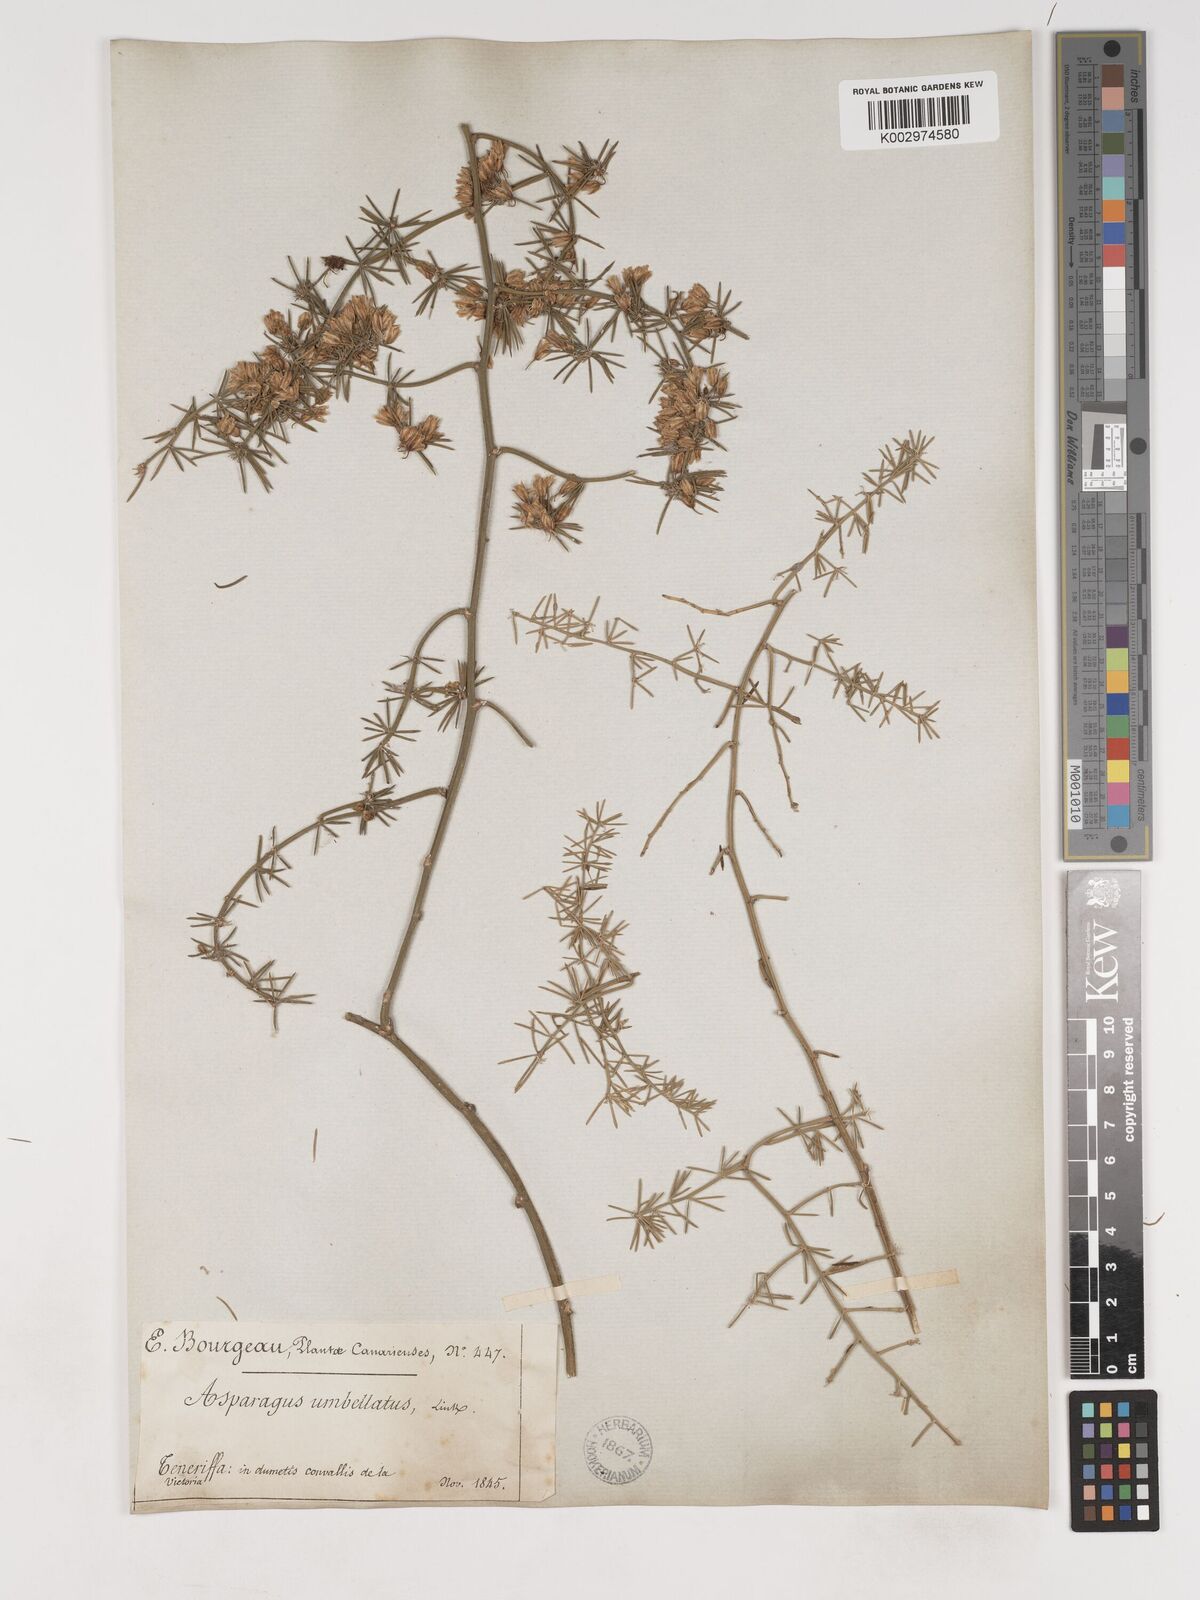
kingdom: Plantae
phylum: Tracheophyta
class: Liliopsida
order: Asparagales
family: Asparagaceae
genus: Asparagus
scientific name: Asparagus umbellatus
